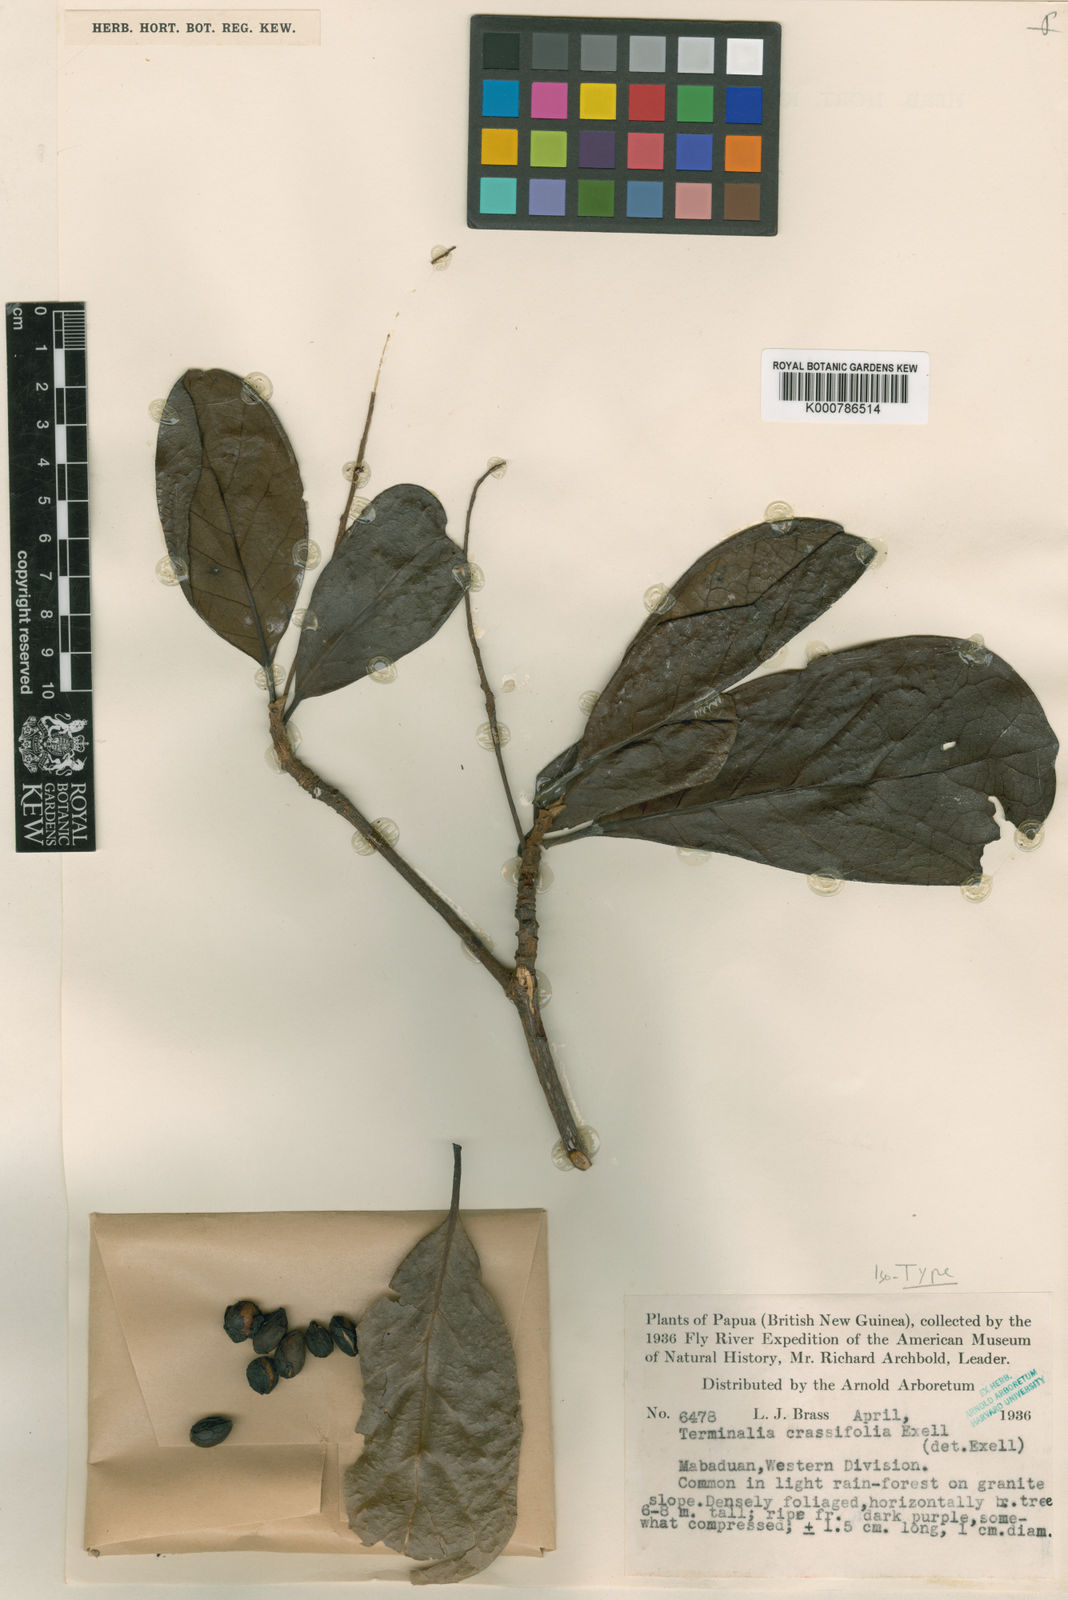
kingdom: Plantae
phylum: Tracheophyta
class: Magnoliopsida
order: Myrtales
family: Combretaceae
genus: Terminalia
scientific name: Terminalia subacroptera
